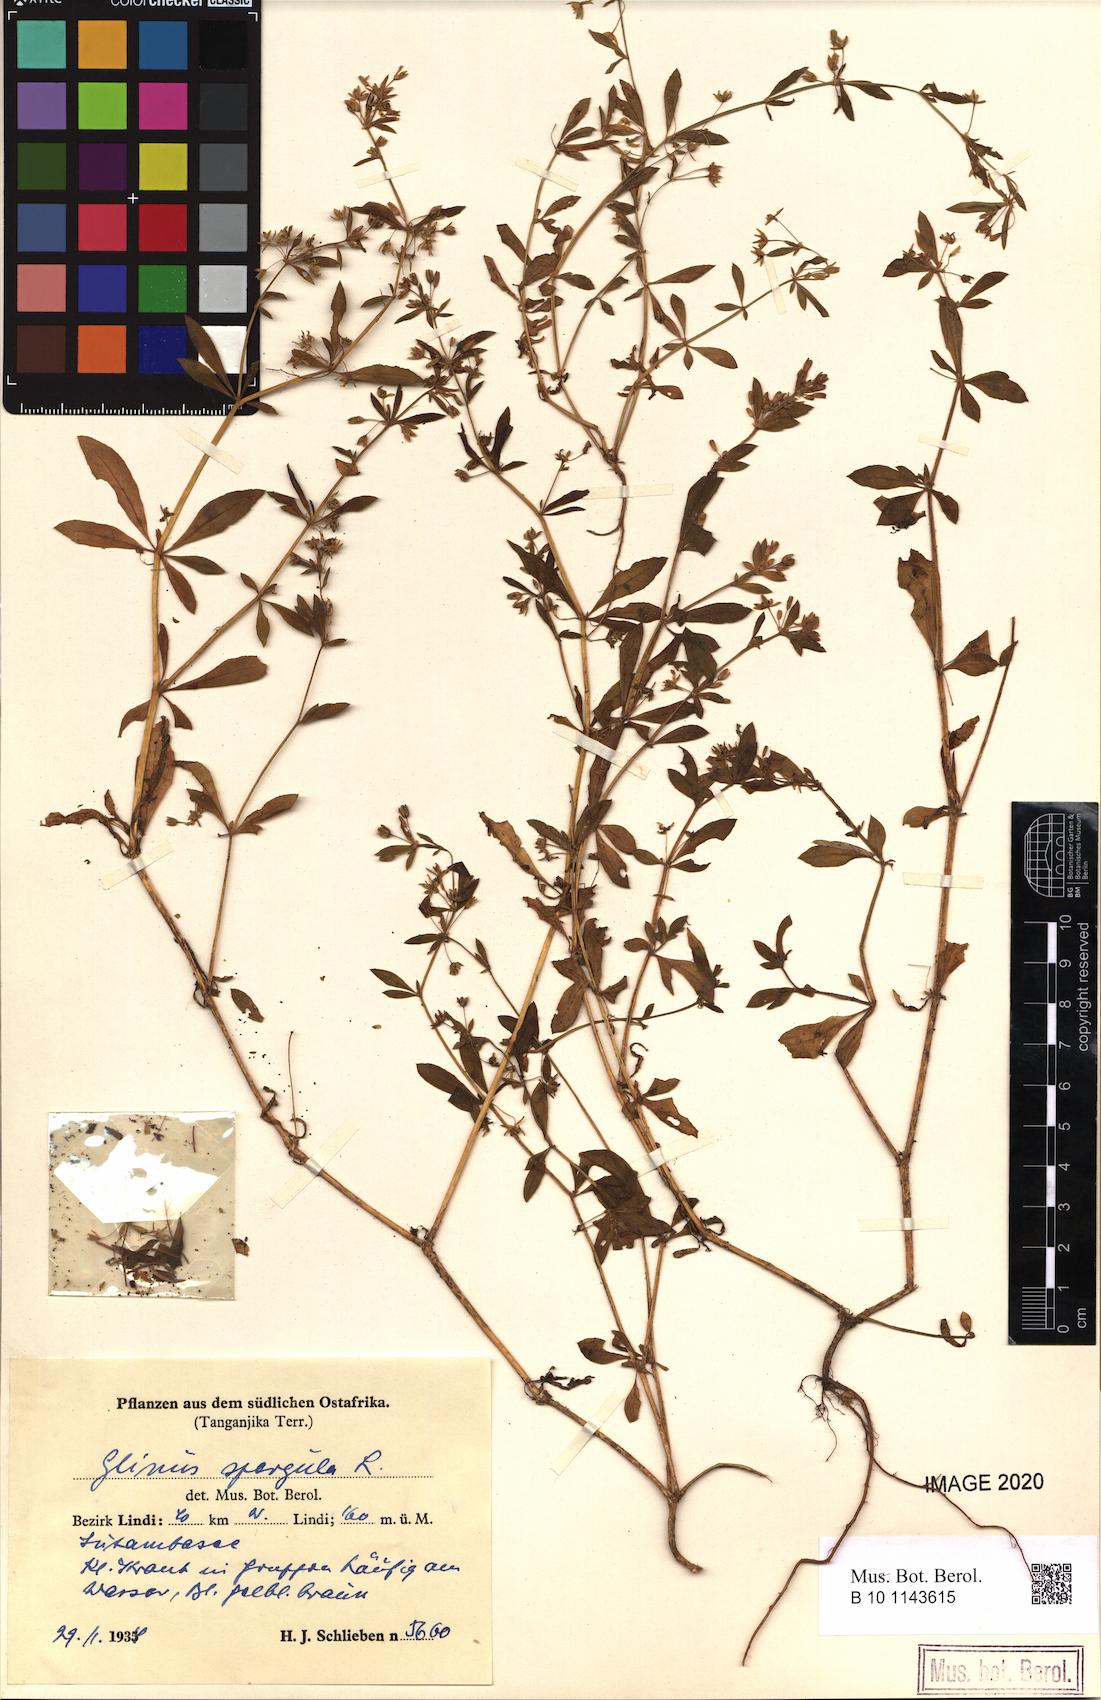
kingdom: Plantae
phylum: Tracheophyta
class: Magnoliopsida
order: Caryophyllales
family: Molluginaceae
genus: Glinus
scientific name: Glinus oppositifolius
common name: Slender carpetweed
